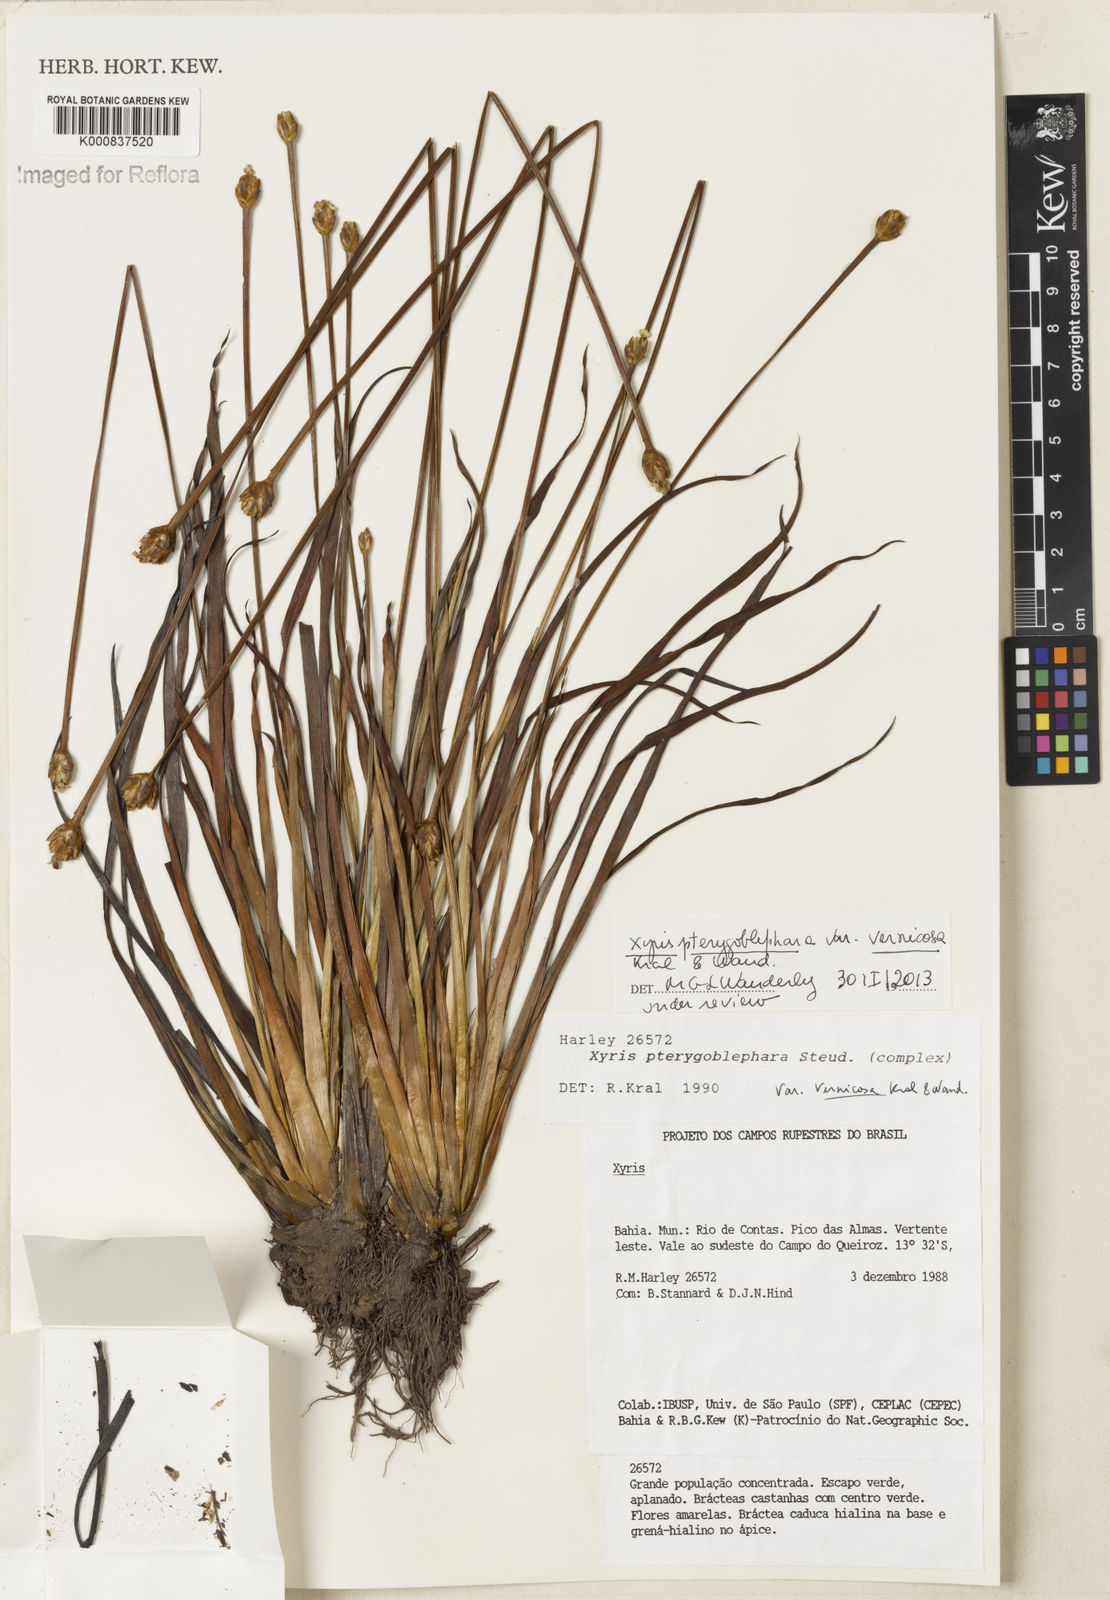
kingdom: Plantae
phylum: Tracheophyta
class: Liliopsida
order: Poales
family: Xyridaceae
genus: Xyris
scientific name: Xyris pterygoblephara
